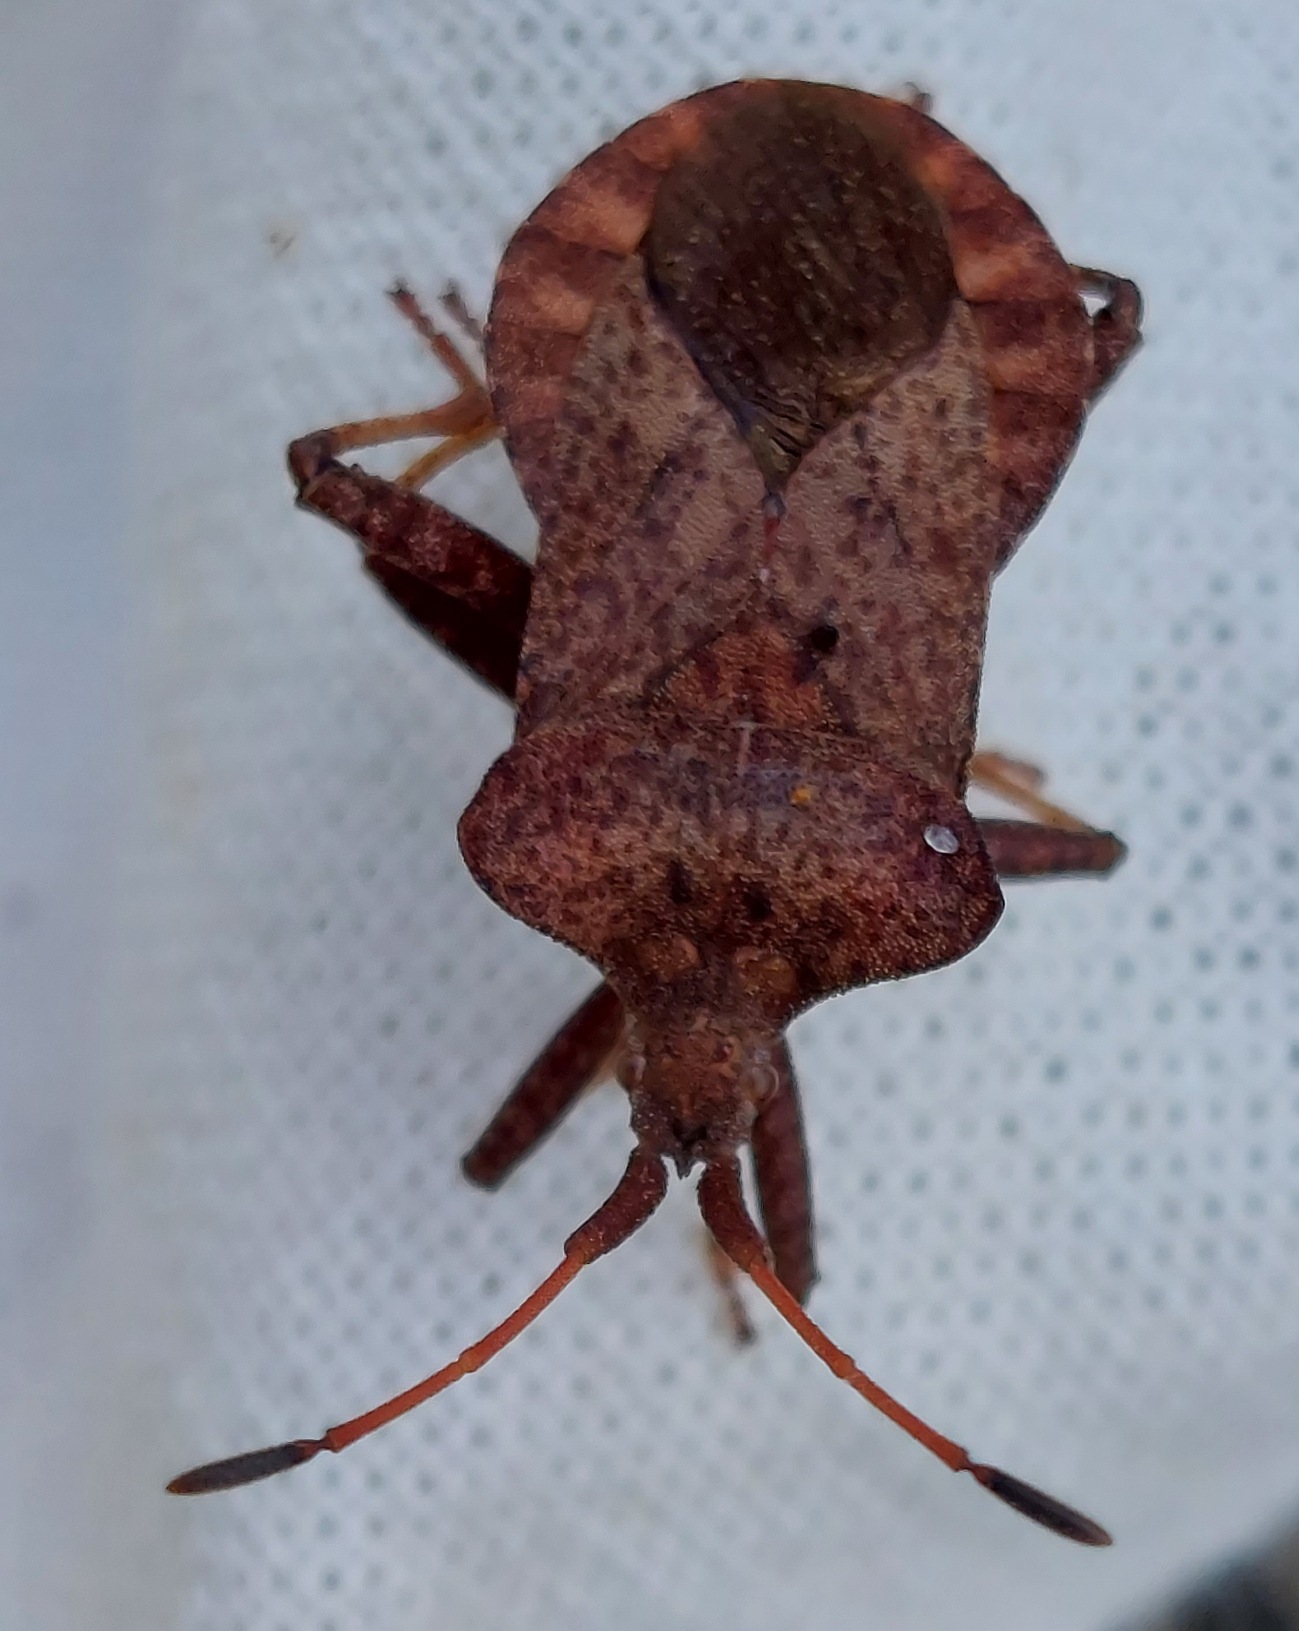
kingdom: Animalia
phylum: Arthropoda
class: Insecta
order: Hemiptera
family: Coreidae
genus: Coreus
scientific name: Coreus marginatus
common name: Skræppetæge
